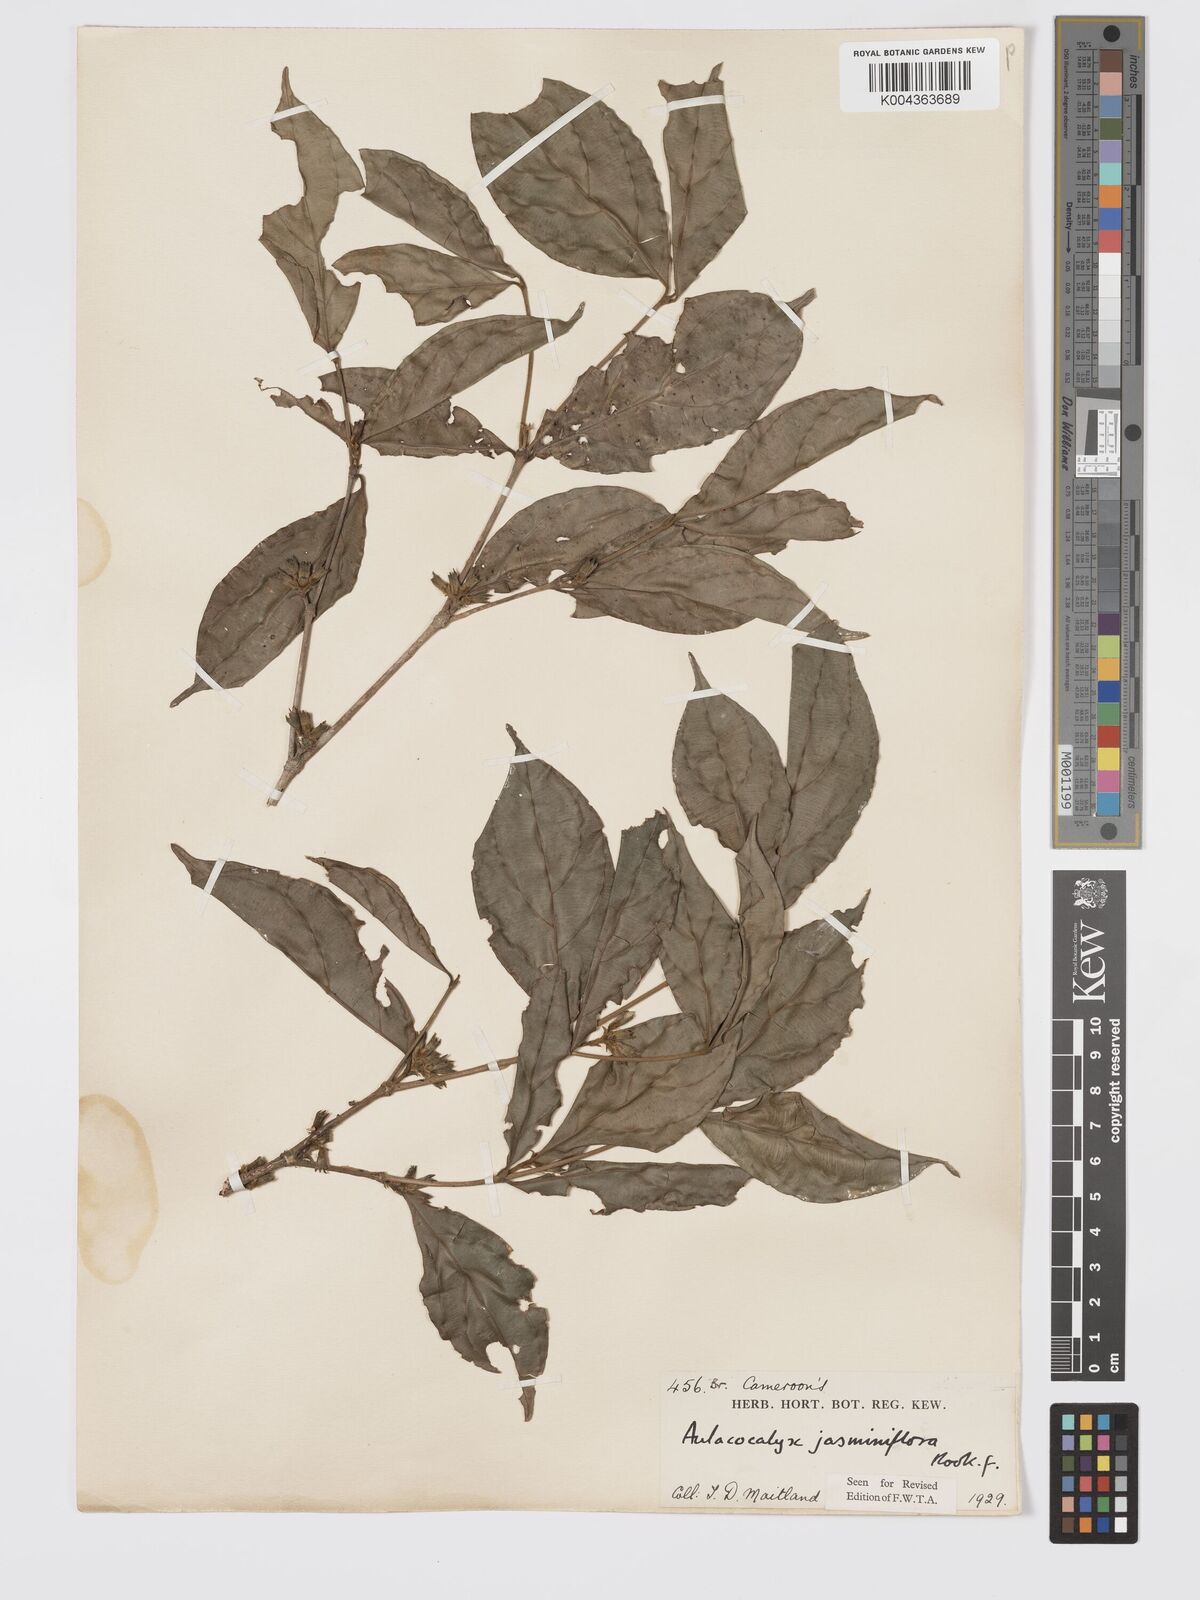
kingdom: Plantae
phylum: Tracheophyta
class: Magnoliopsida
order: Gentianales
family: Rubiaceae
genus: Aulacocalyx
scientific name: Aulacocalyx jasminiflora
